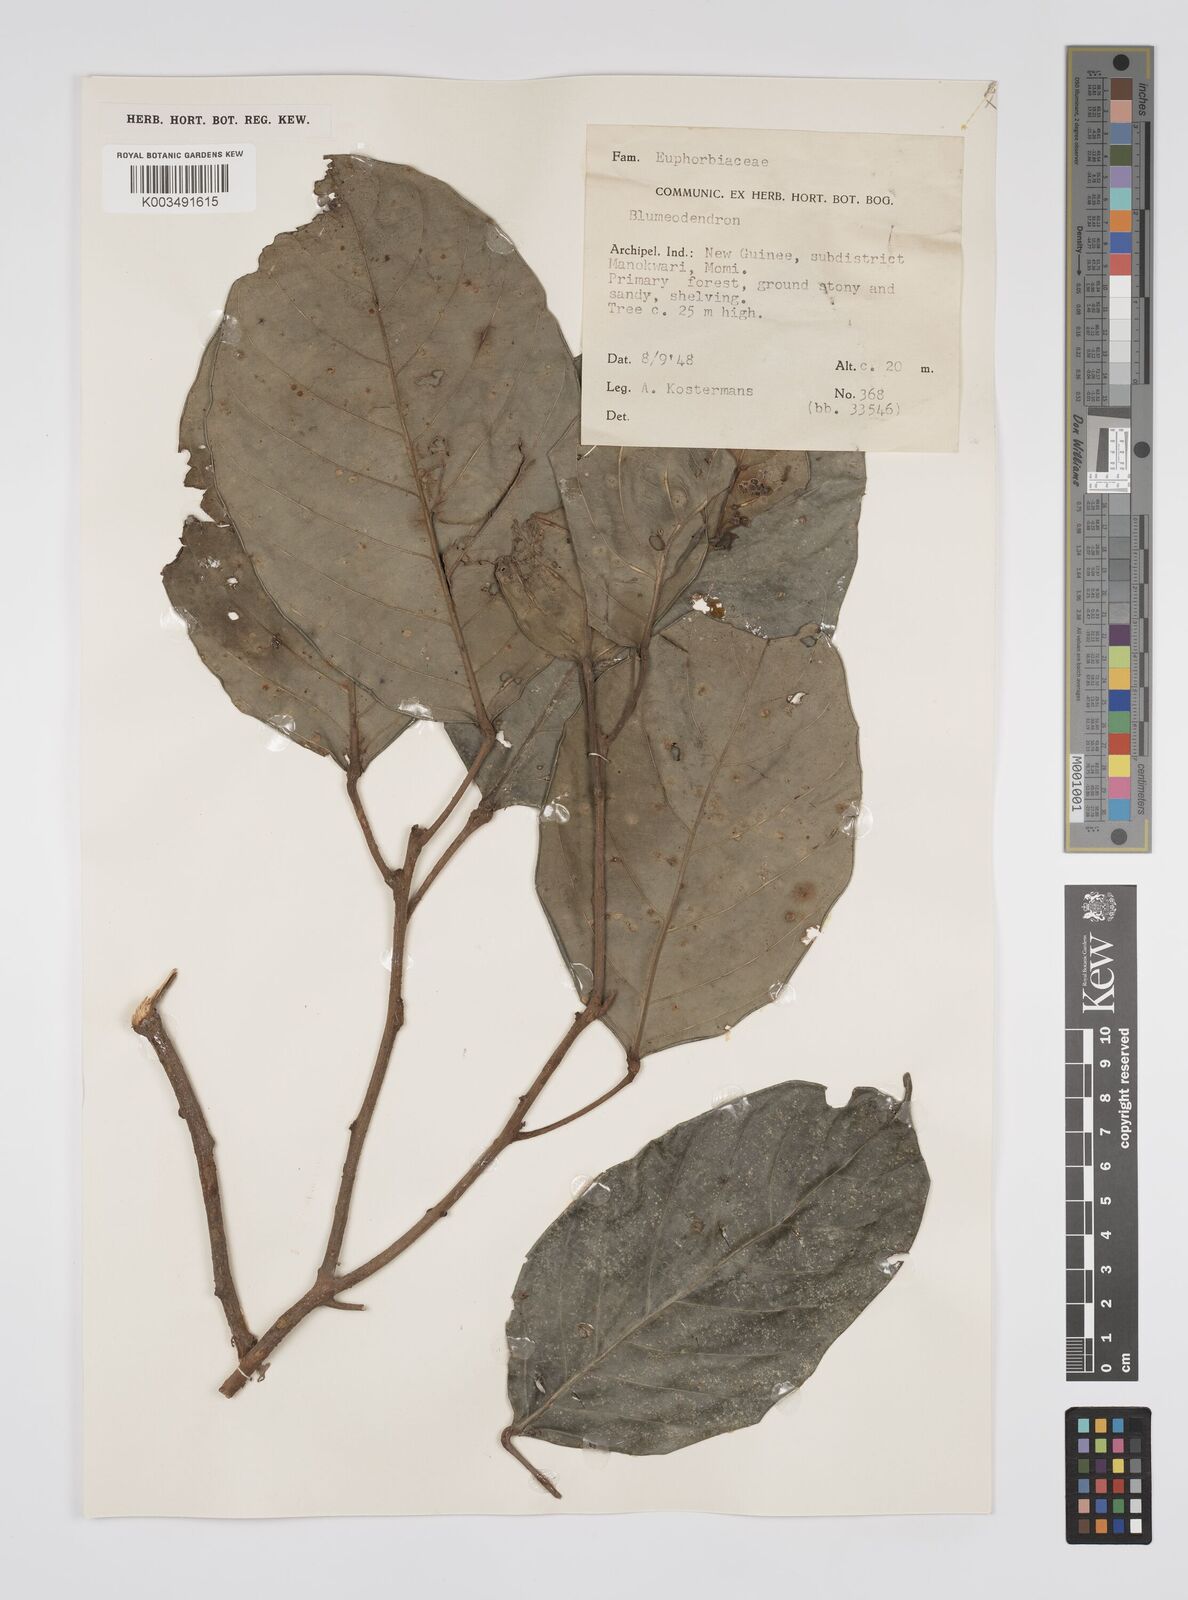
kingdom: Plantae
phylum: Tracheophyta
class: Magnoliopsida
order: Malpighiales
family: Euphorbiaceae
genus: Blumeodendron
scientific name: Blumeodendron
